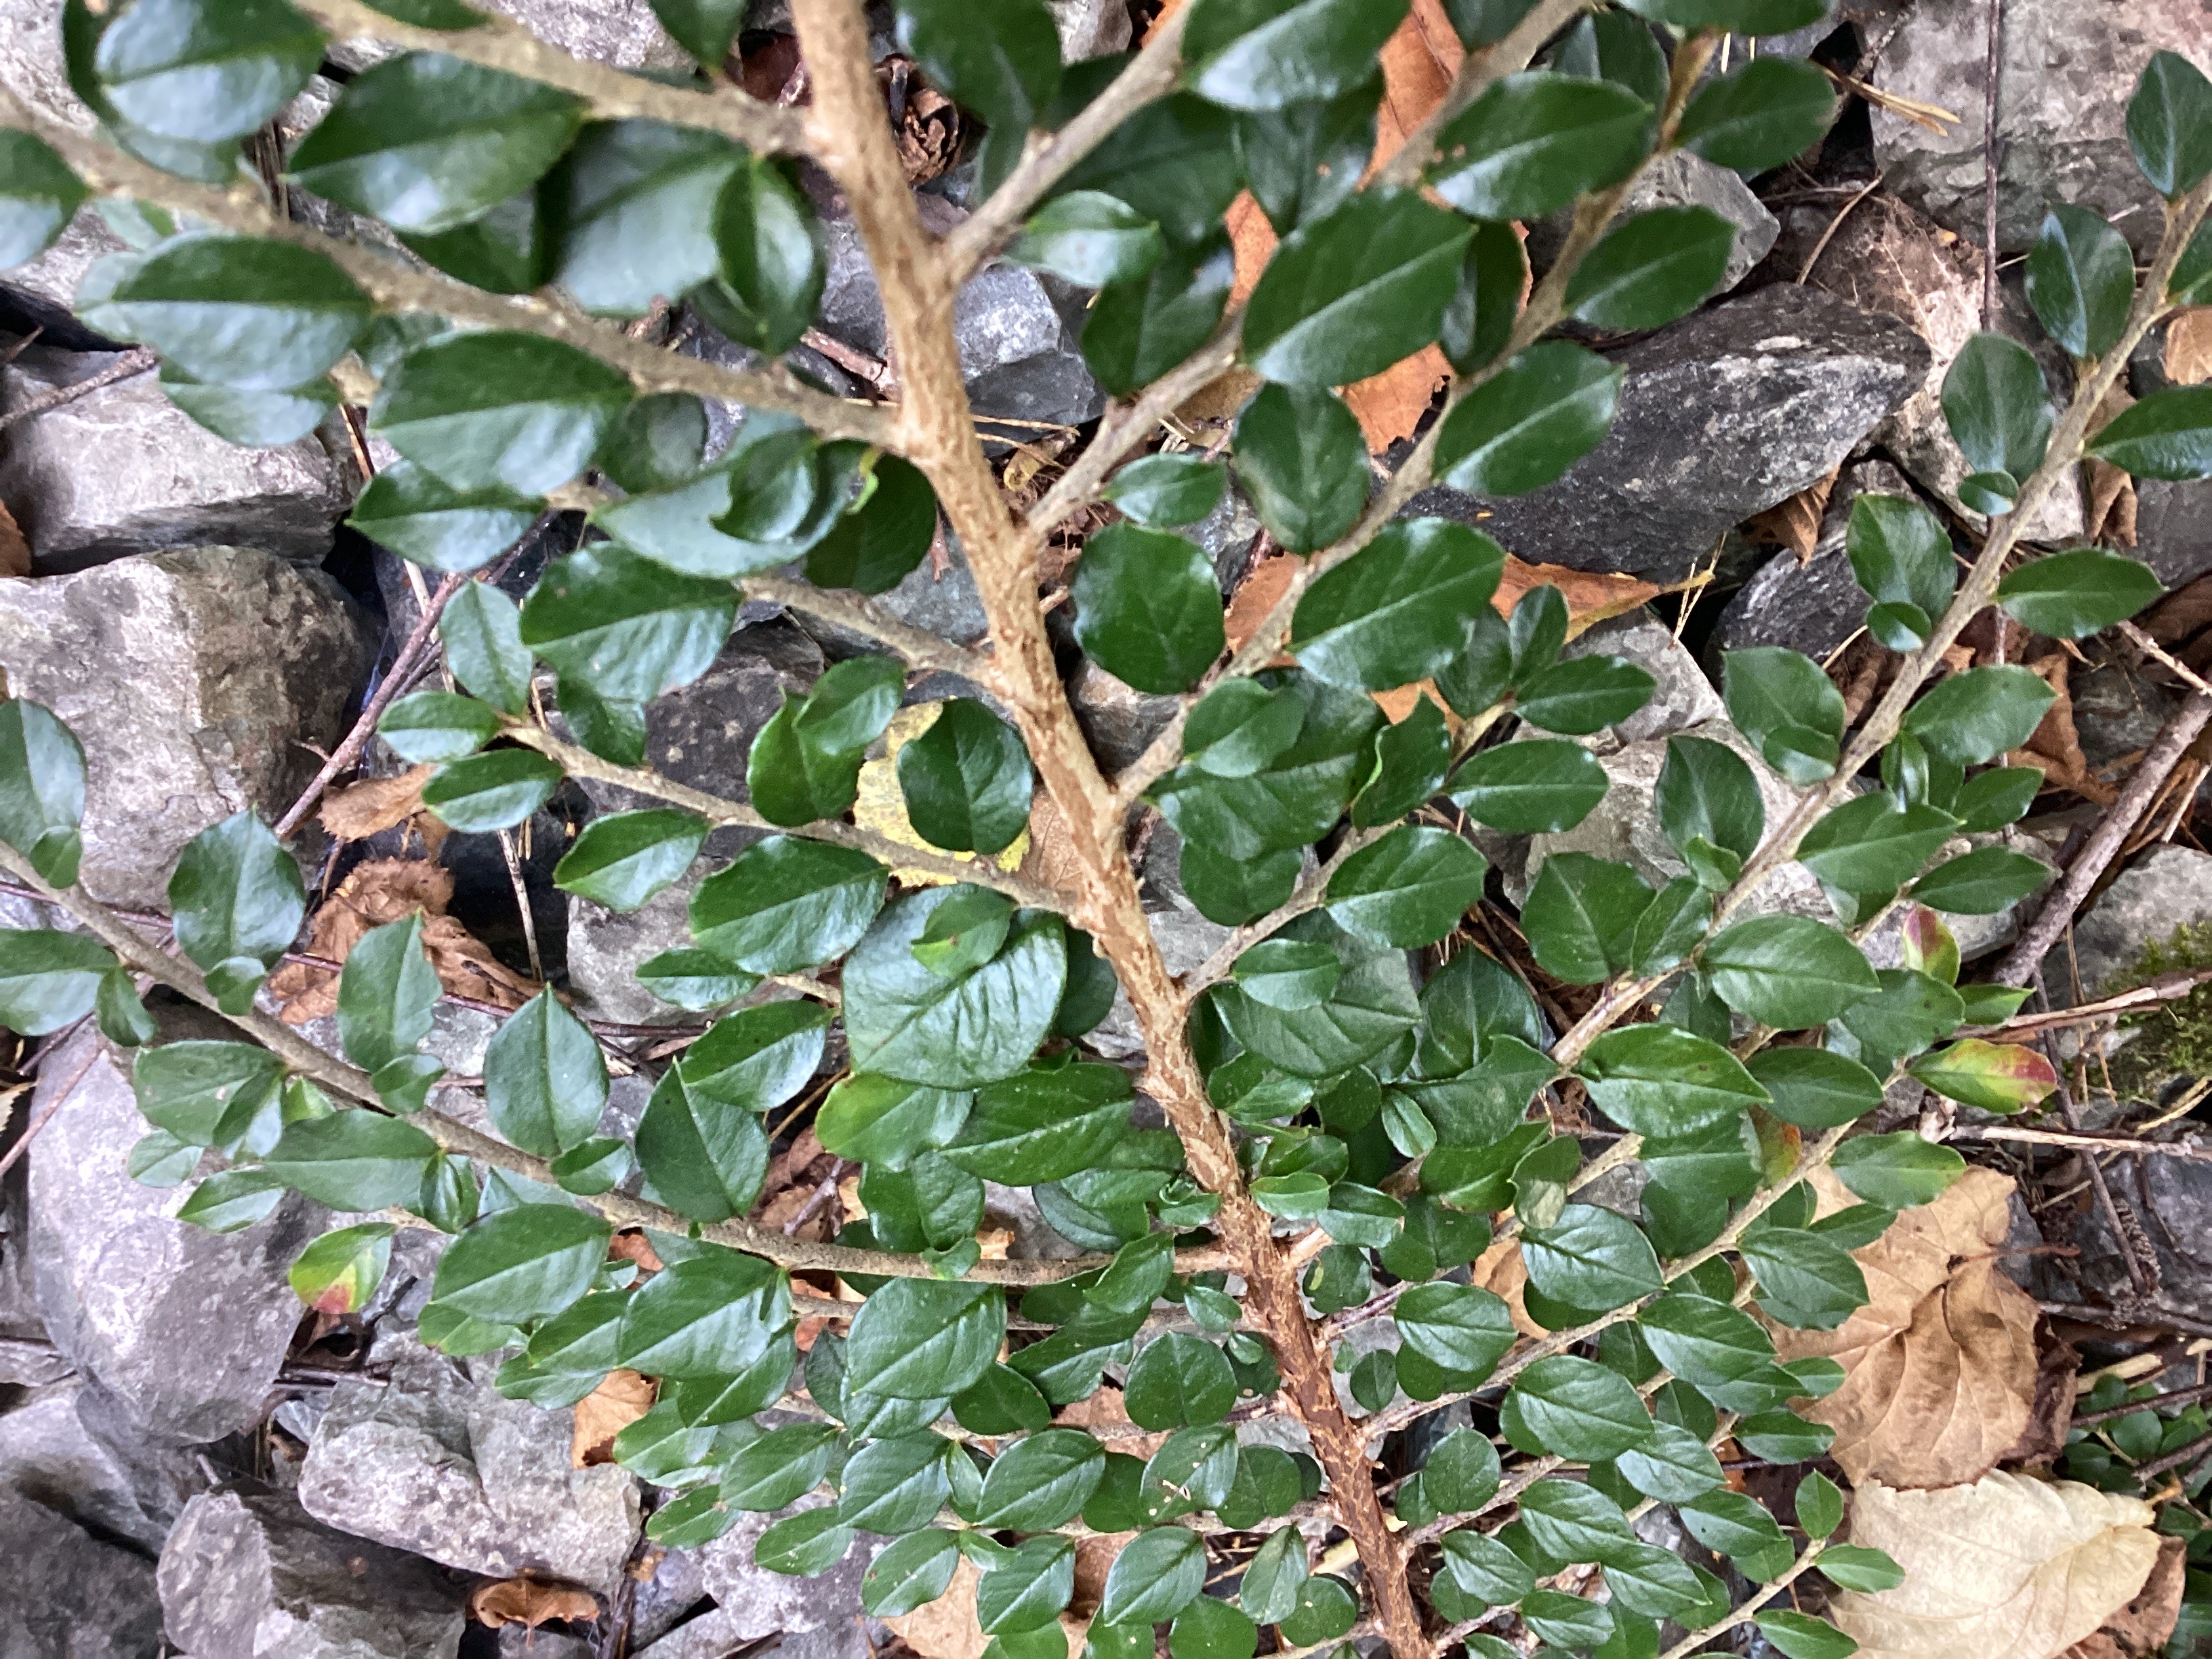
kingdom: Plantae
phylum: Tracheophyta
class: Magnoliopsida
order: Rosales
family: Rosaceae
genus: Cotoneaster
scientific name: Cotoneaster horizontalis
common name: krypmispel
